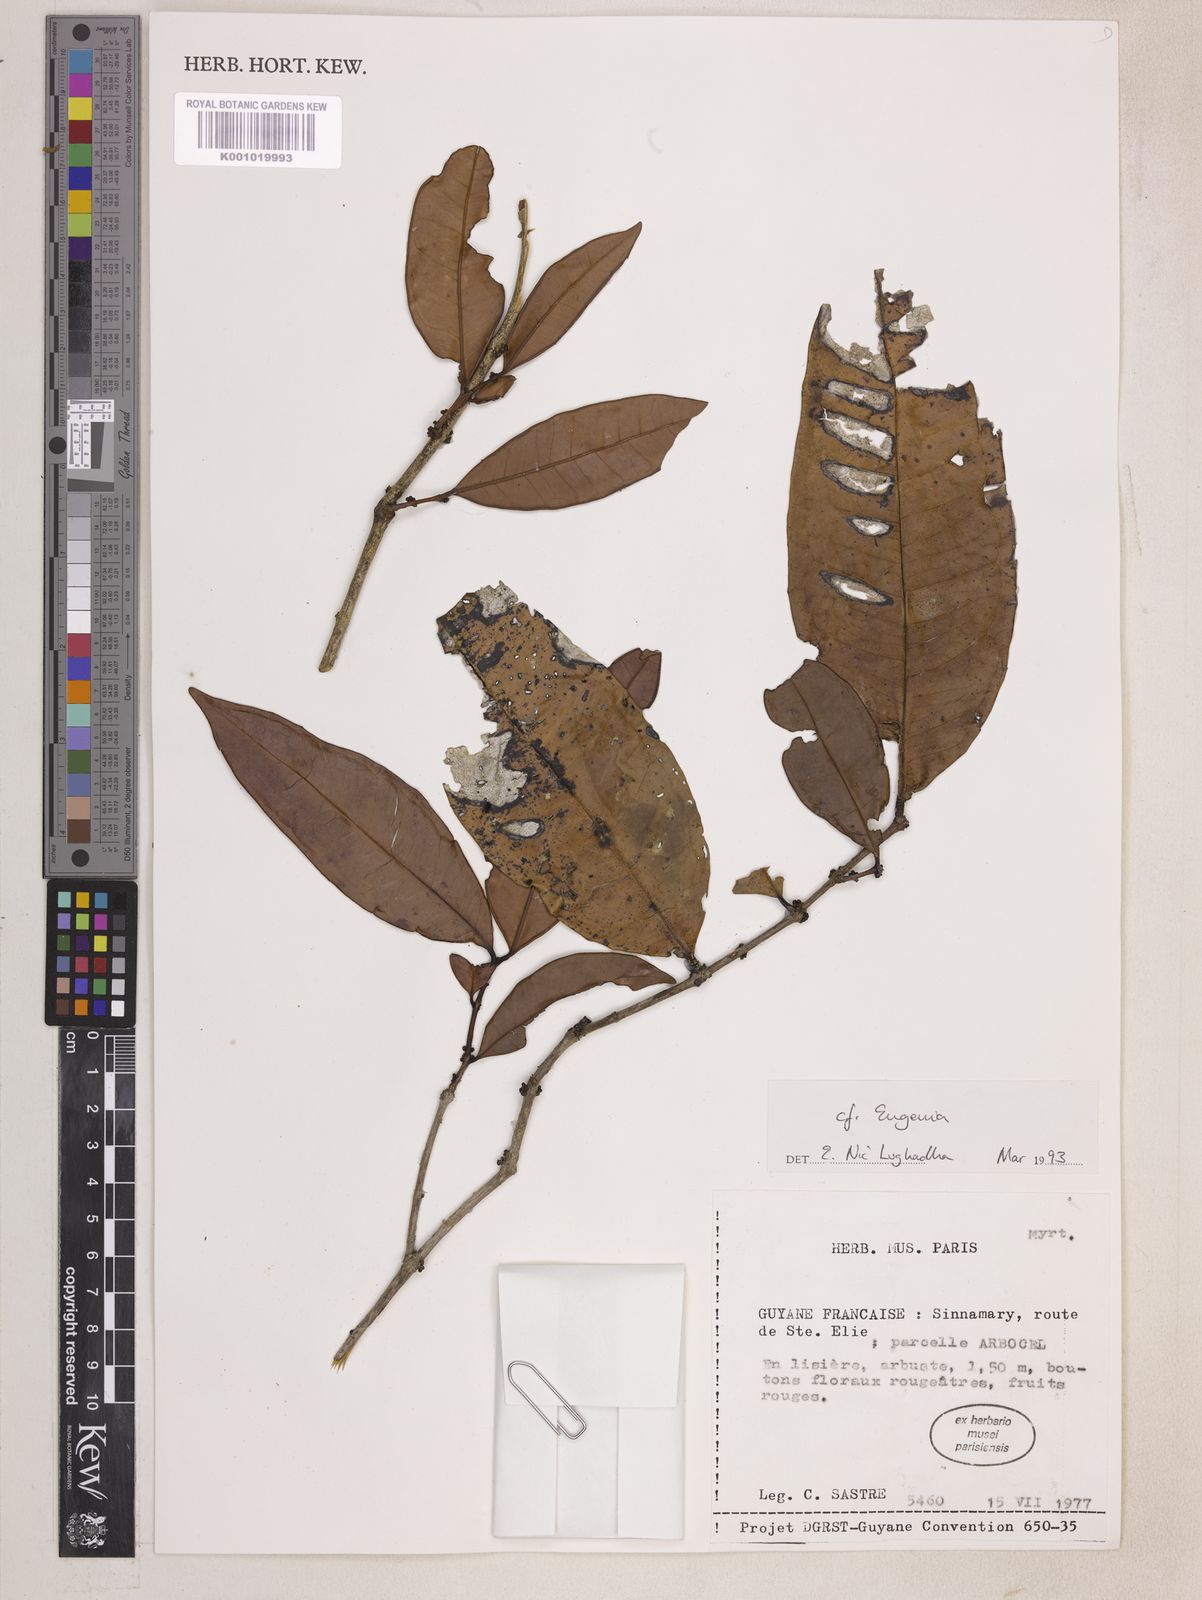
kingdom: Plantae
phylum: Tracheophyta
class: Magnoliopsida
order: Myrtales
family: Myrtaceae
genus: Eugenia
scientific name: Eugenia
